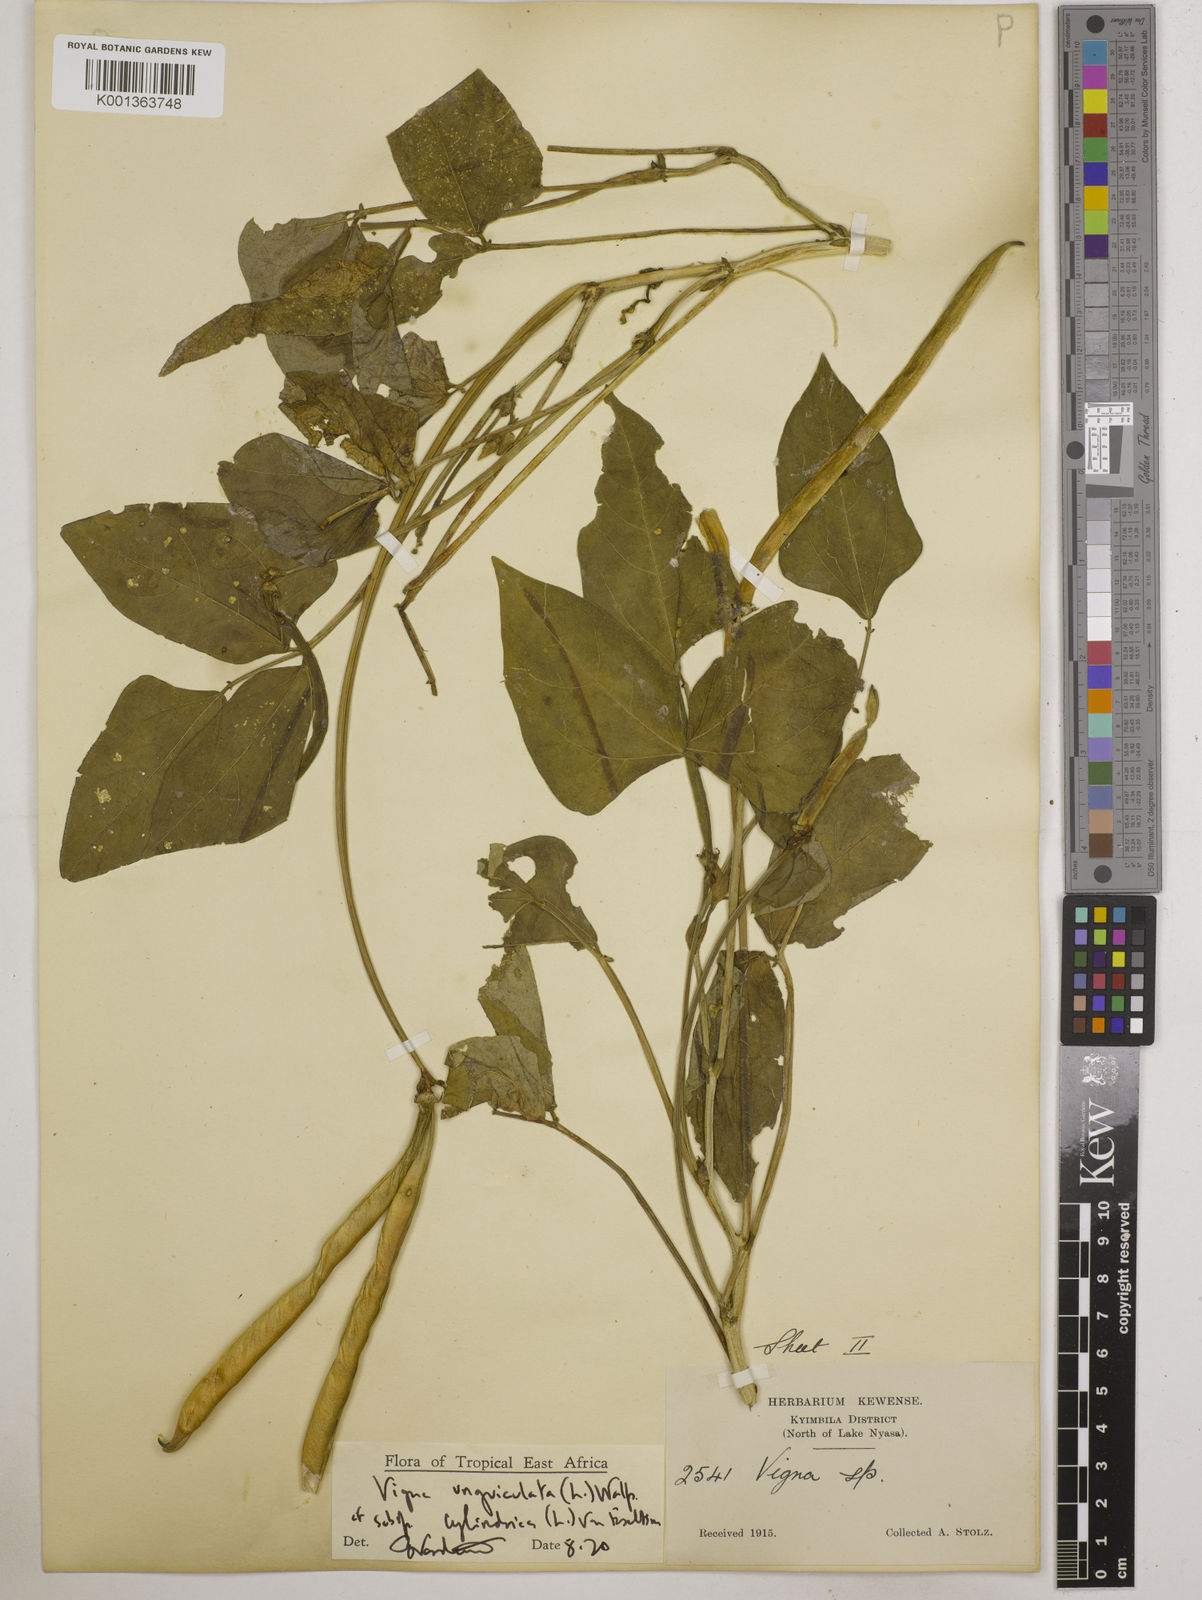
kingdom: Plantae
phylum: Tracheophyta
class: Magnoliopsida
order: Fabales
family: Fabaceae
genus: Vigna
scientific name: Vigna
